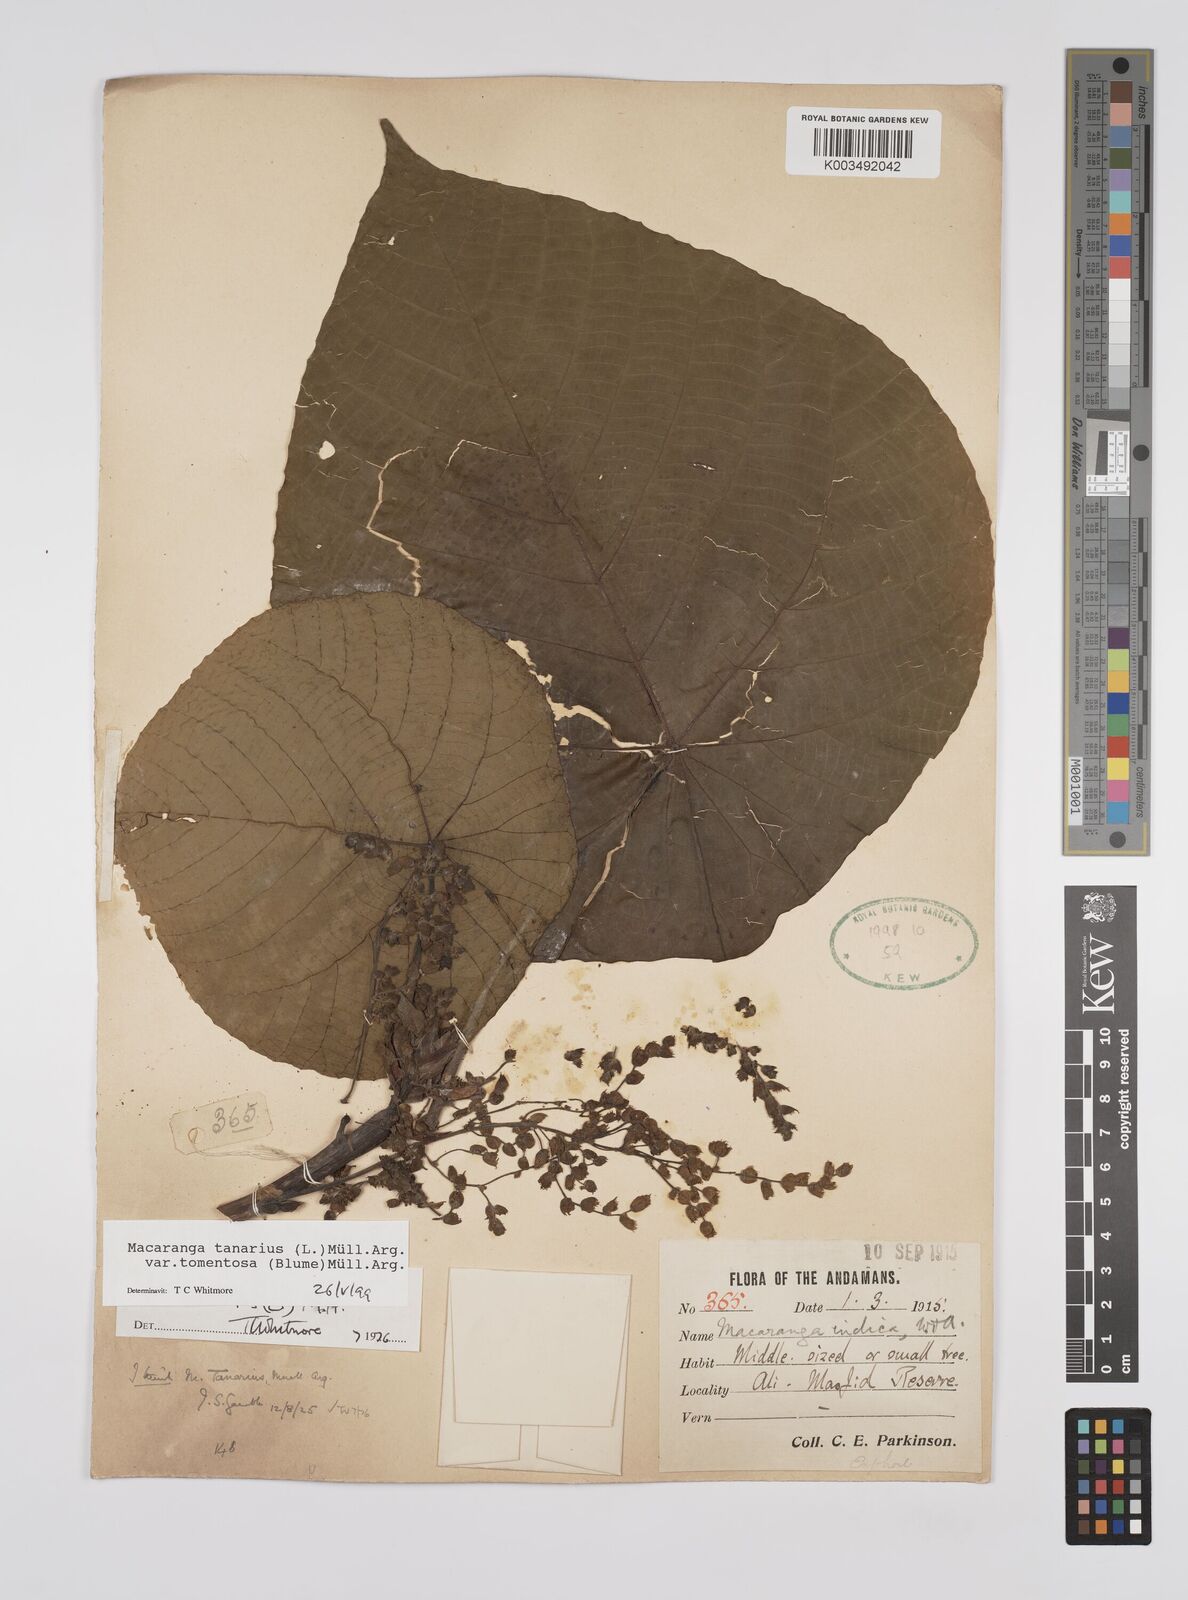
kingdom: Plantae
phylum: Tracheophyta
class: Magnoliopsida
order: Malpighiales
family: Euphorbiaceae
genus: Macaranga
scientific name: Macaranga tanarius
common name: Parasol leaf tree
